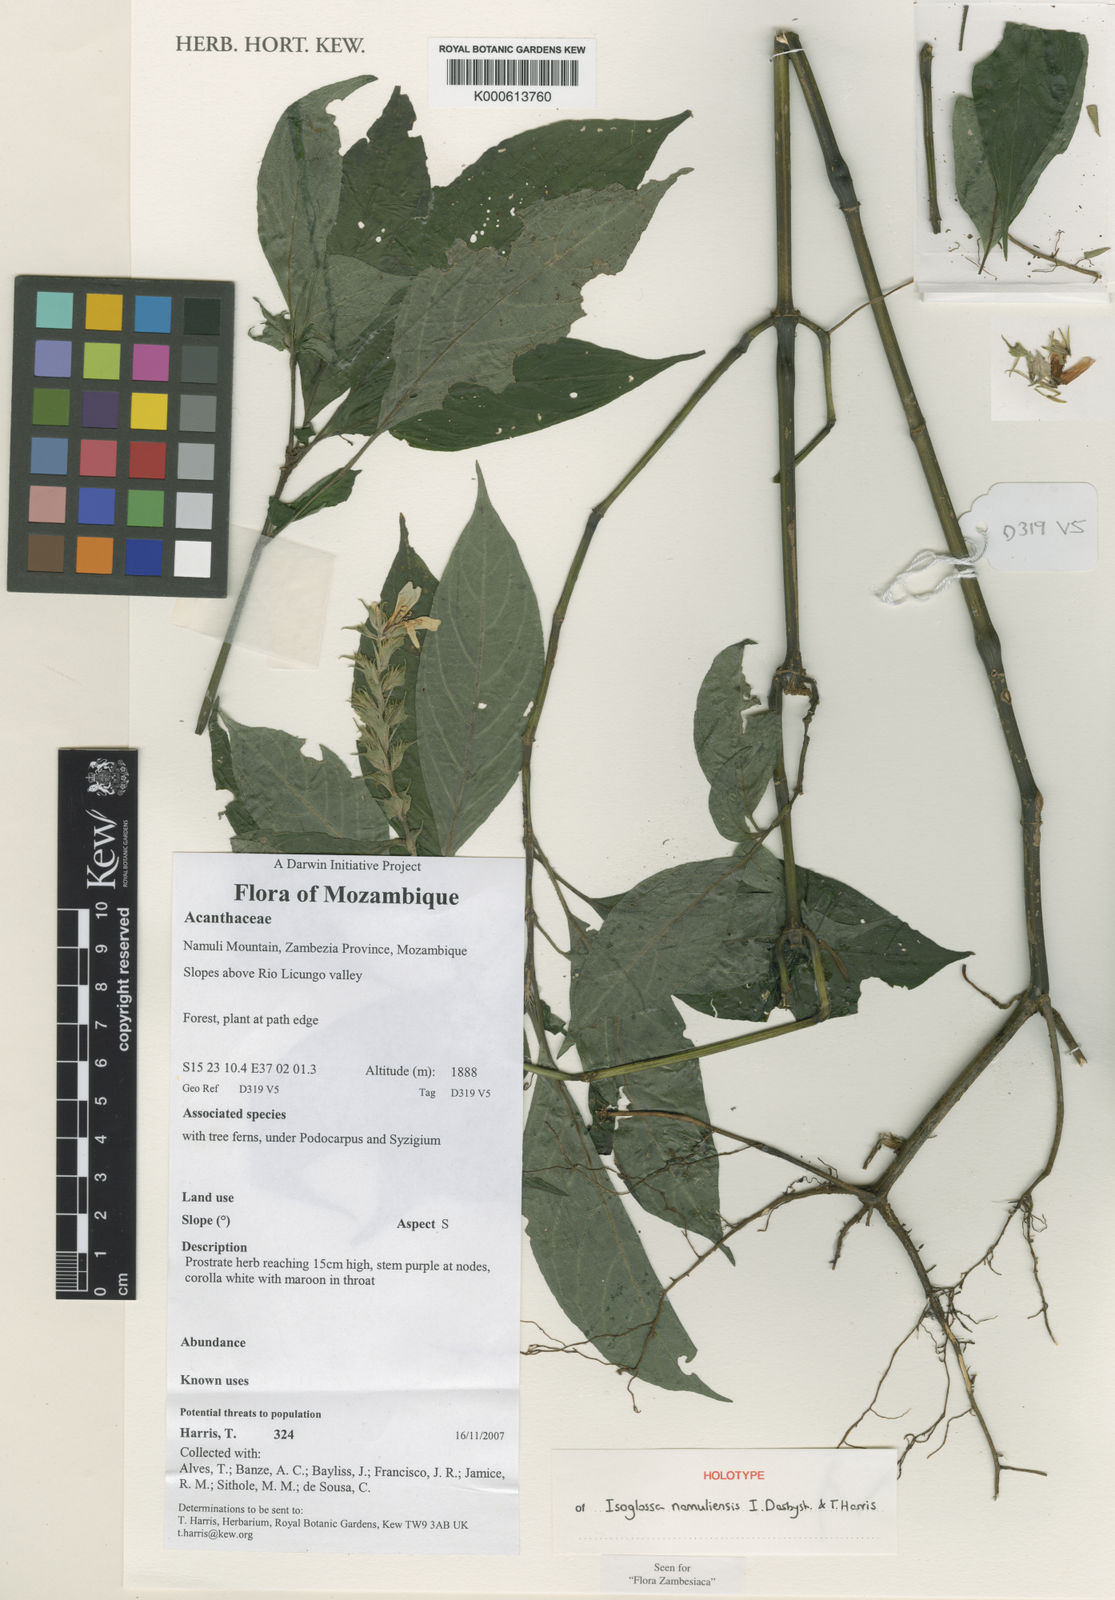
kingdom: Plantae
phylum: Tracheophyta
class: Magnoliopsida
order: Lamiales
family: Acanthaceae
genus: Isoglossa
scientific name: Isoglossa namuliensis
